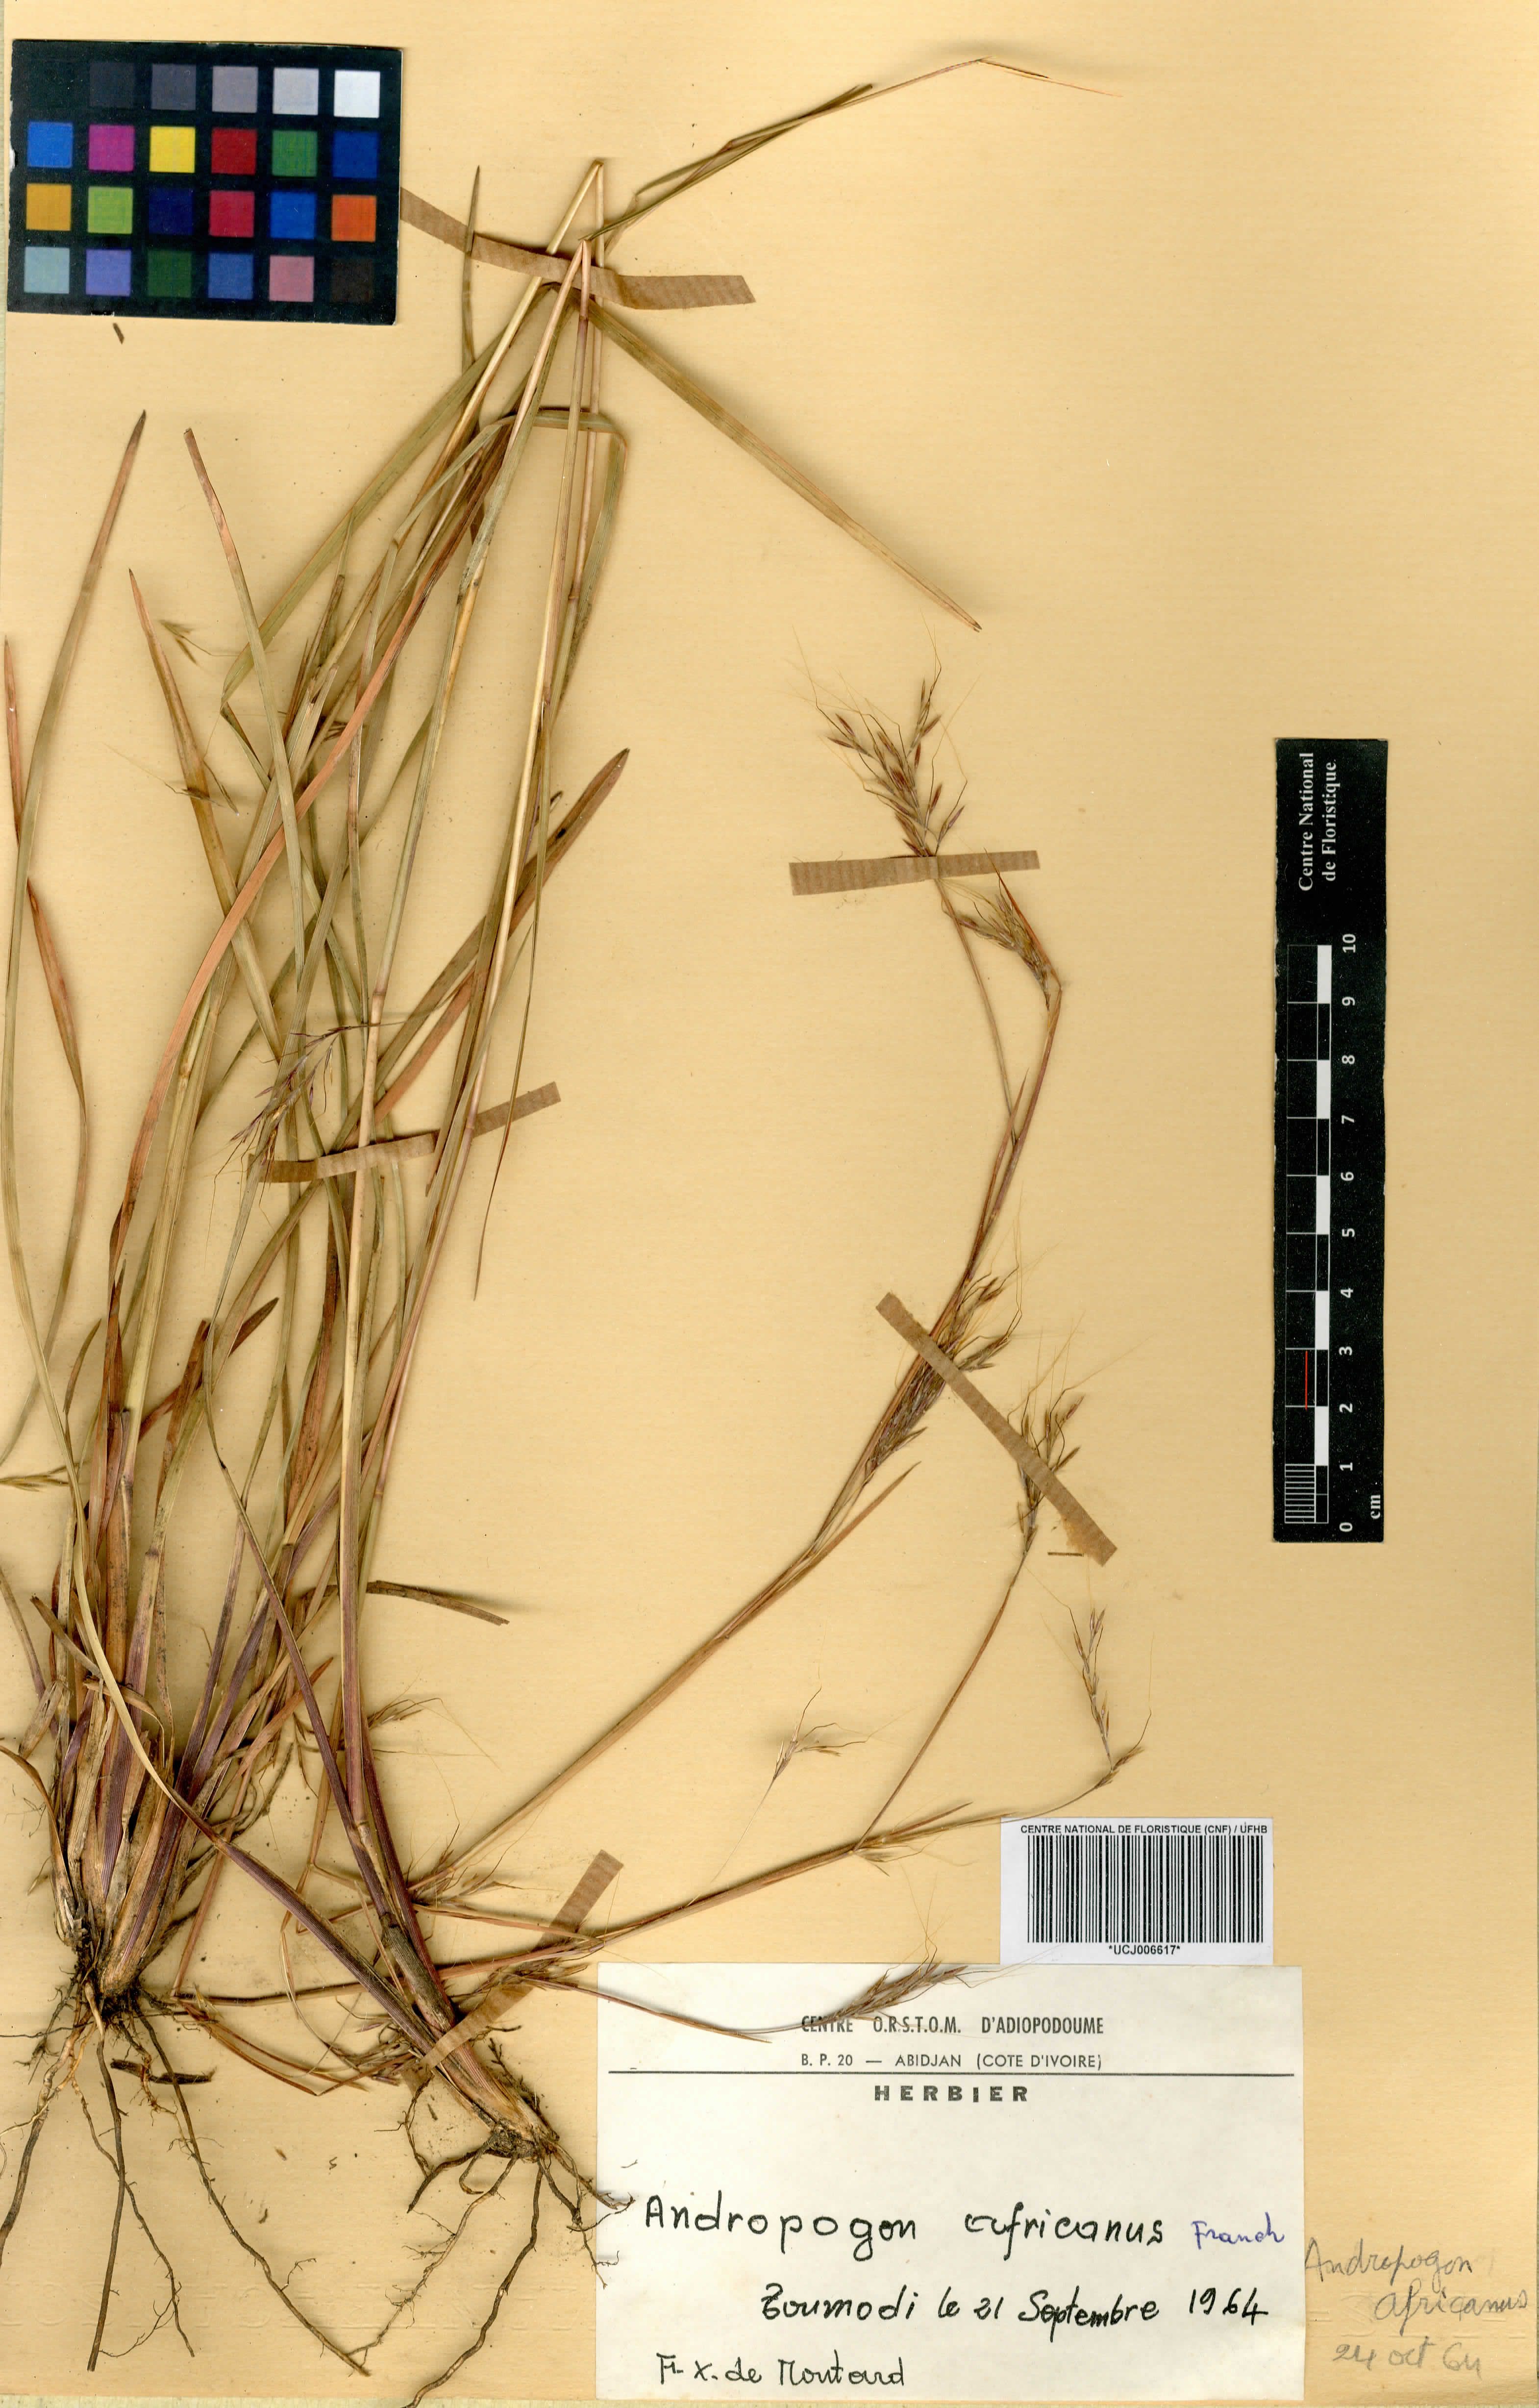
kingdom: Plantae
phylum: Tracheophyta
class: Liliopsida
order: Poales
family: Poaceae
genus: Andropogon
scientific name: Andropogon africanus
